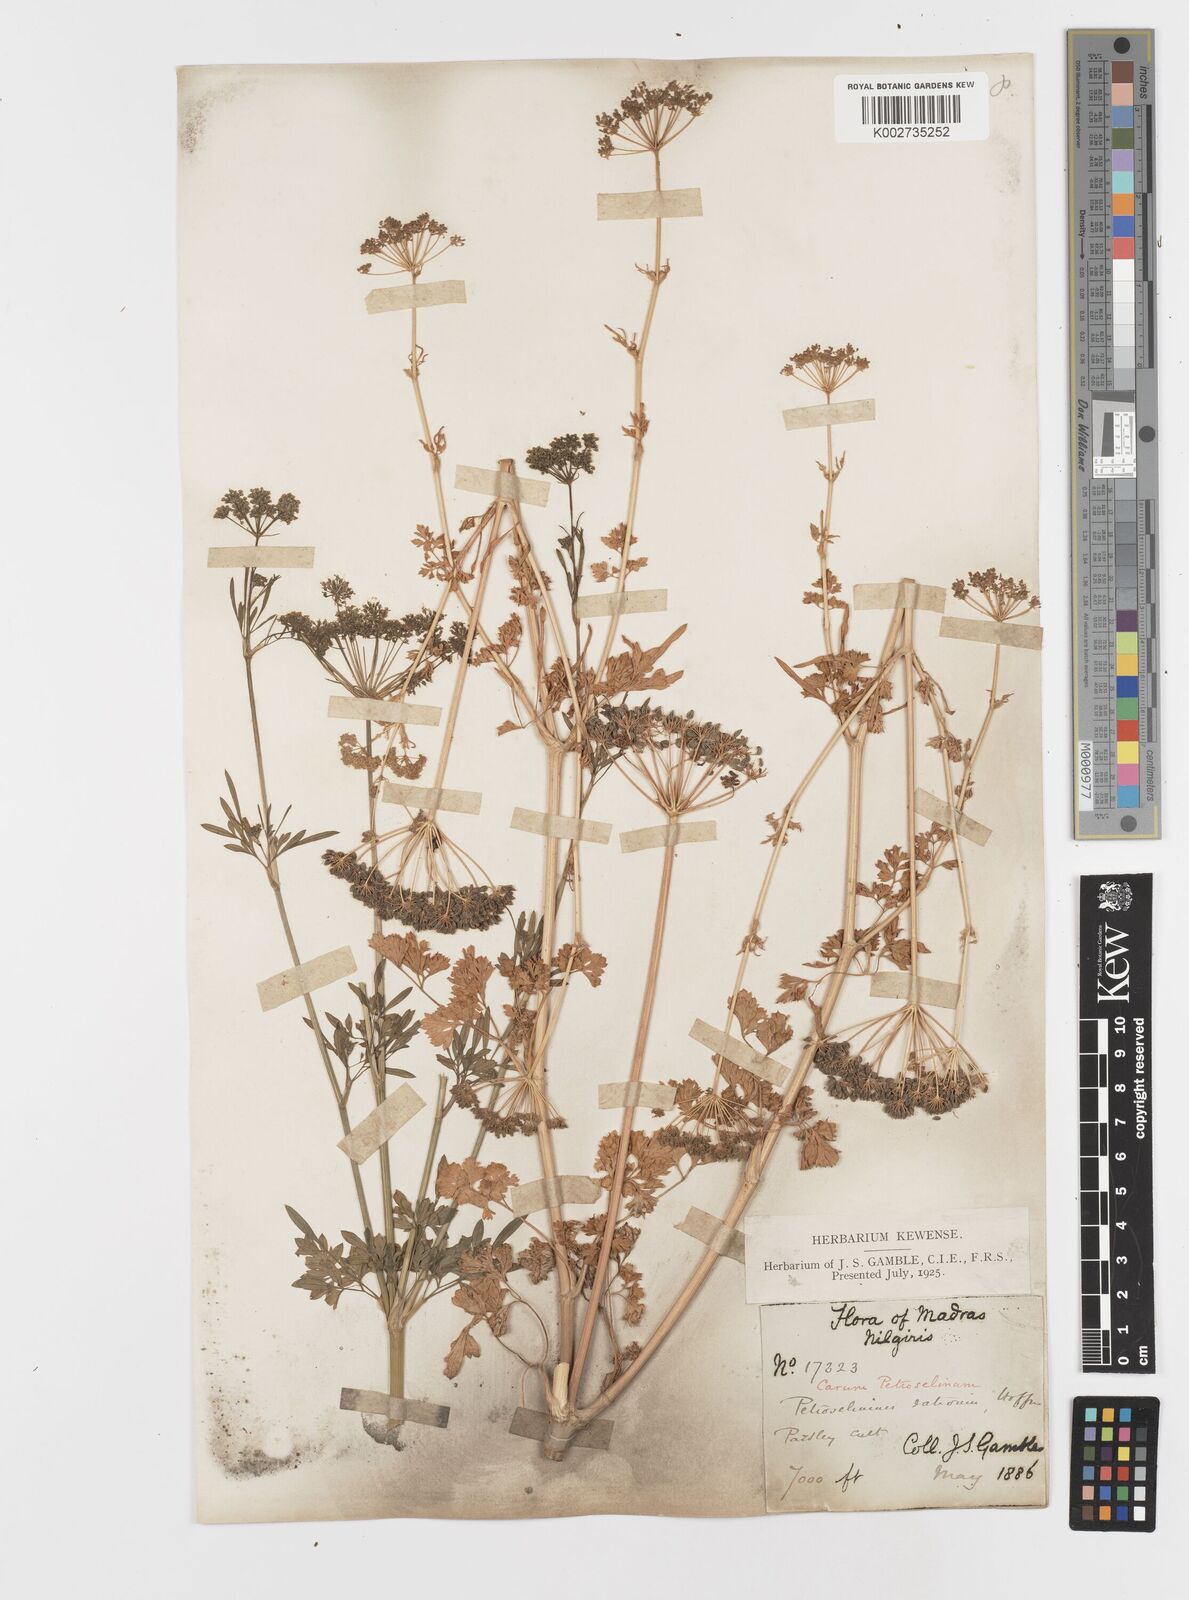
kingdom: Plantae
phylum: Tracheophyta
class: Magnoliopsida
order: Apiales
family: Apiaceae
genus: Petroselinum
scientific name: Petroselinum crispum
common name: Parsley
